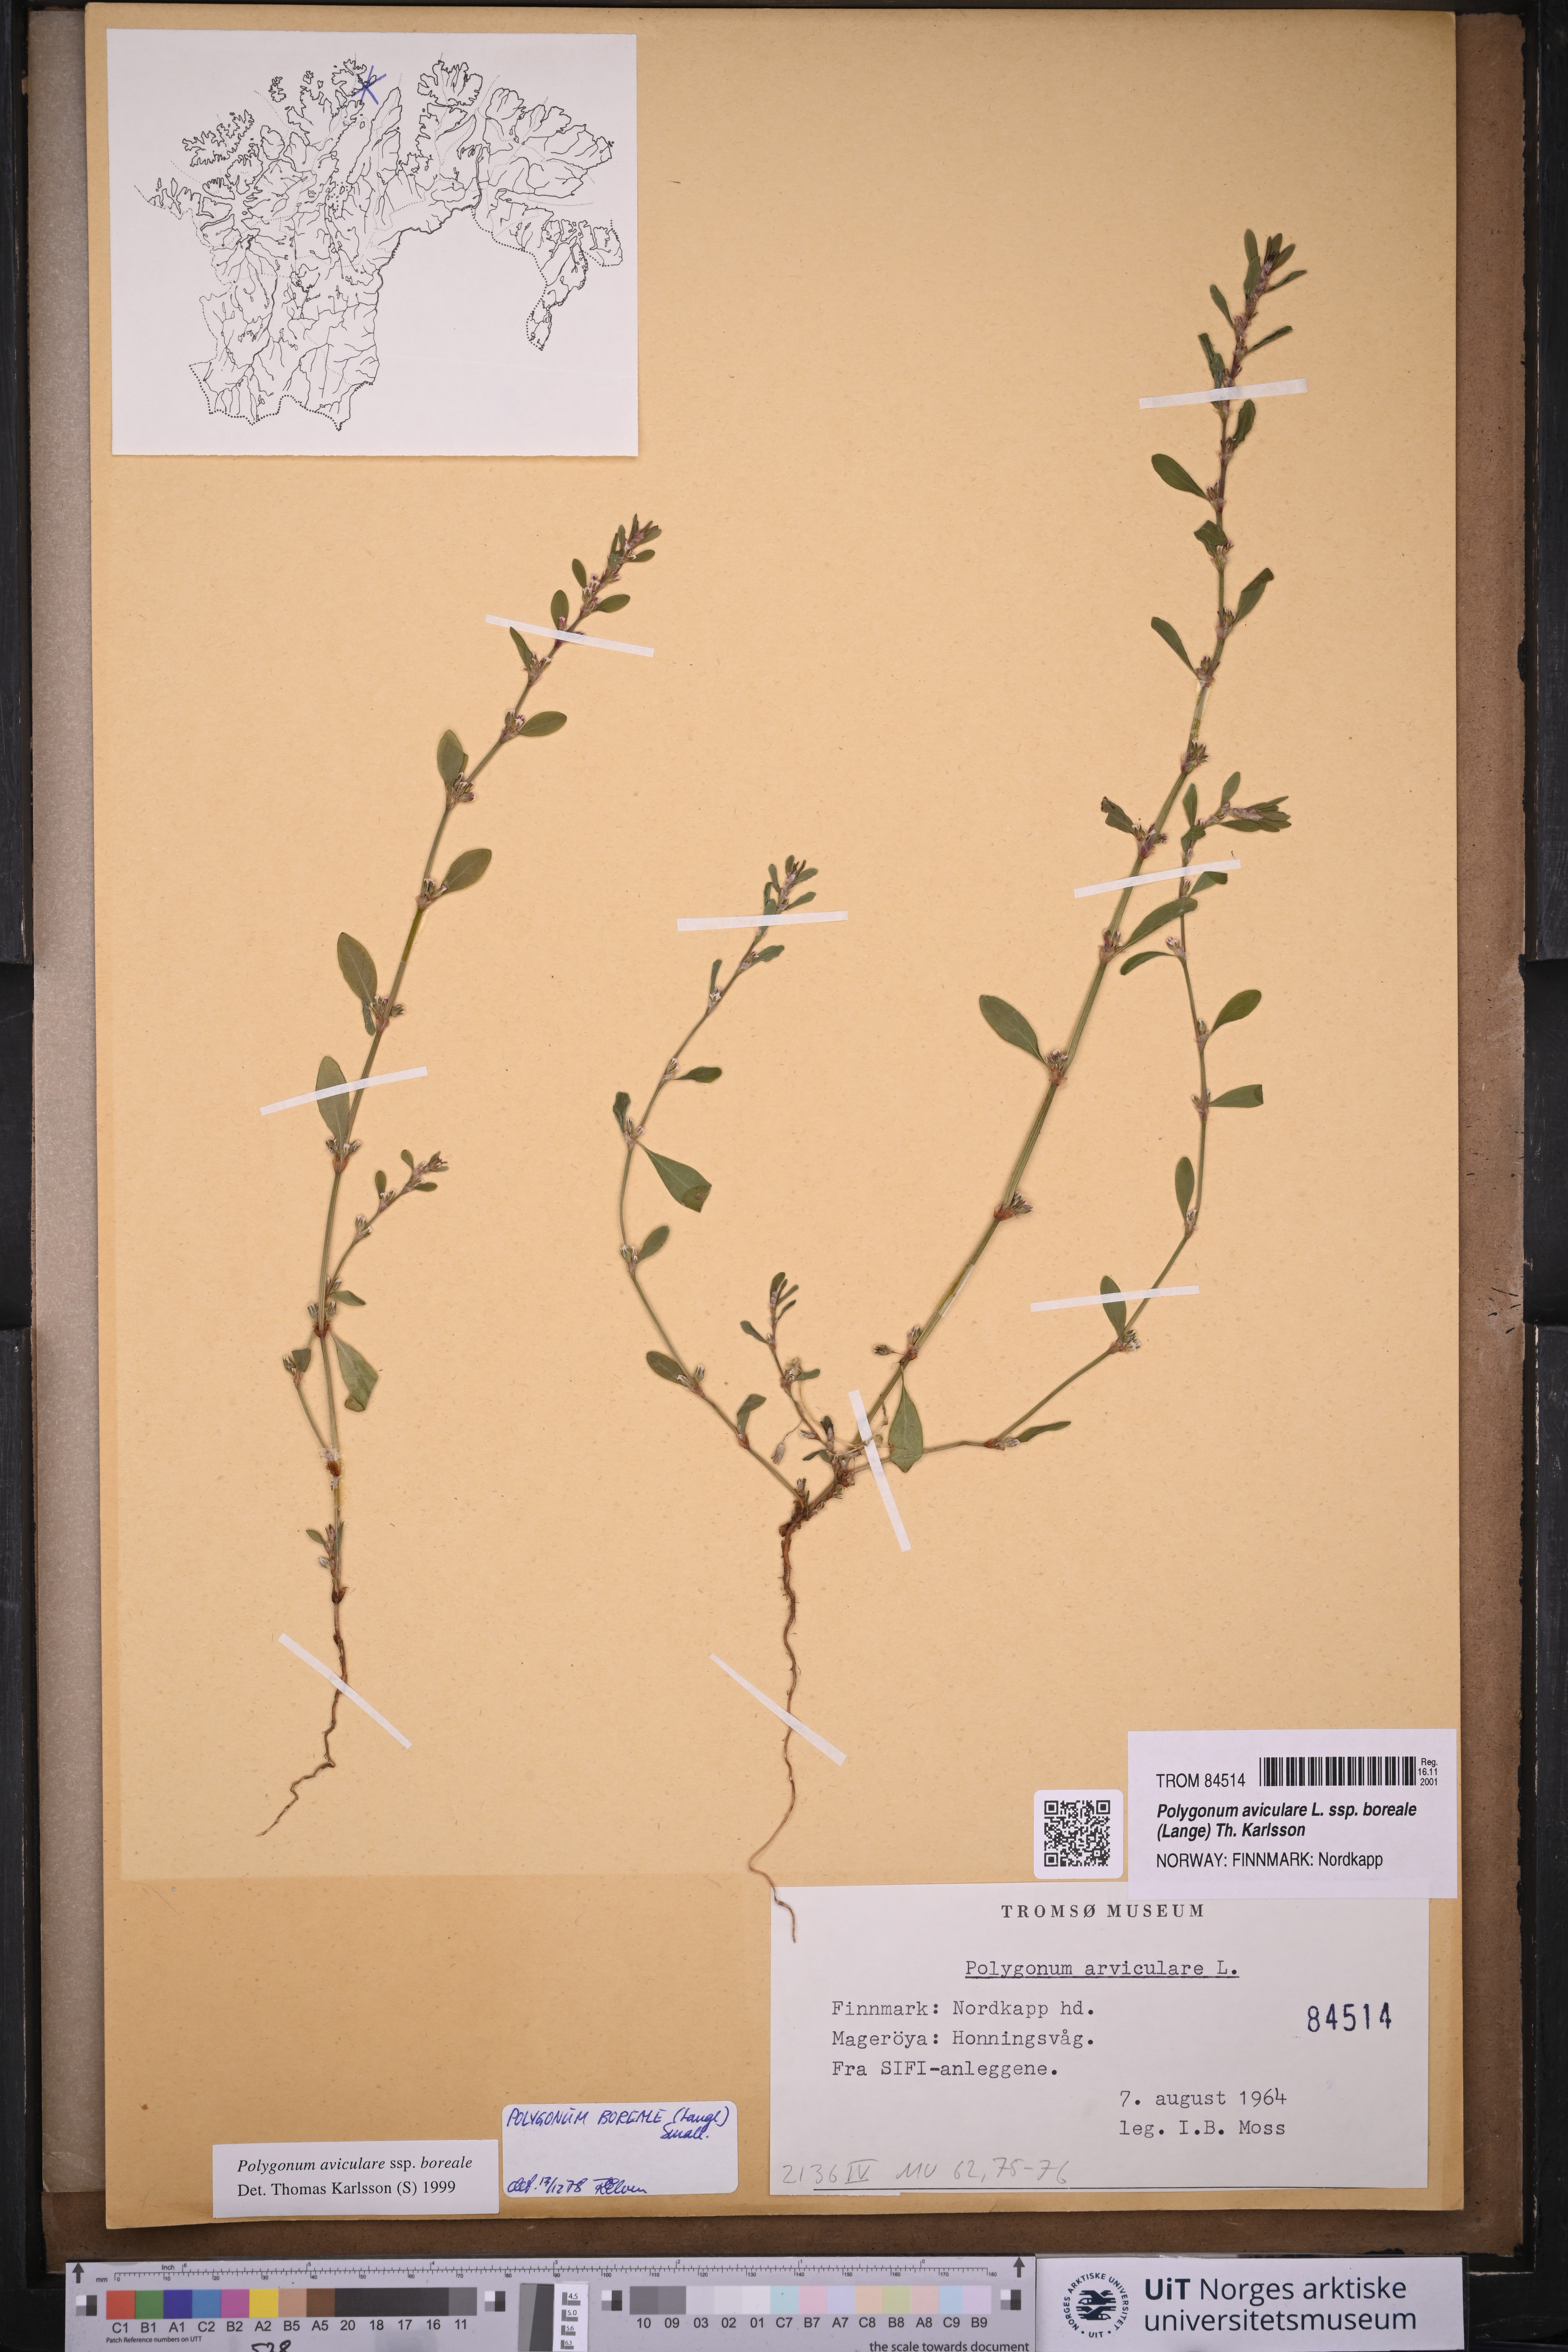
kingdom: Plantae
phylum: Tracheophyta
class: Magnoliopsida
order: Caryophyllales
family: Polygonaceae
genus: Polygonum
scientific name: Polygonum boreale
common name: Northern knotgrass
